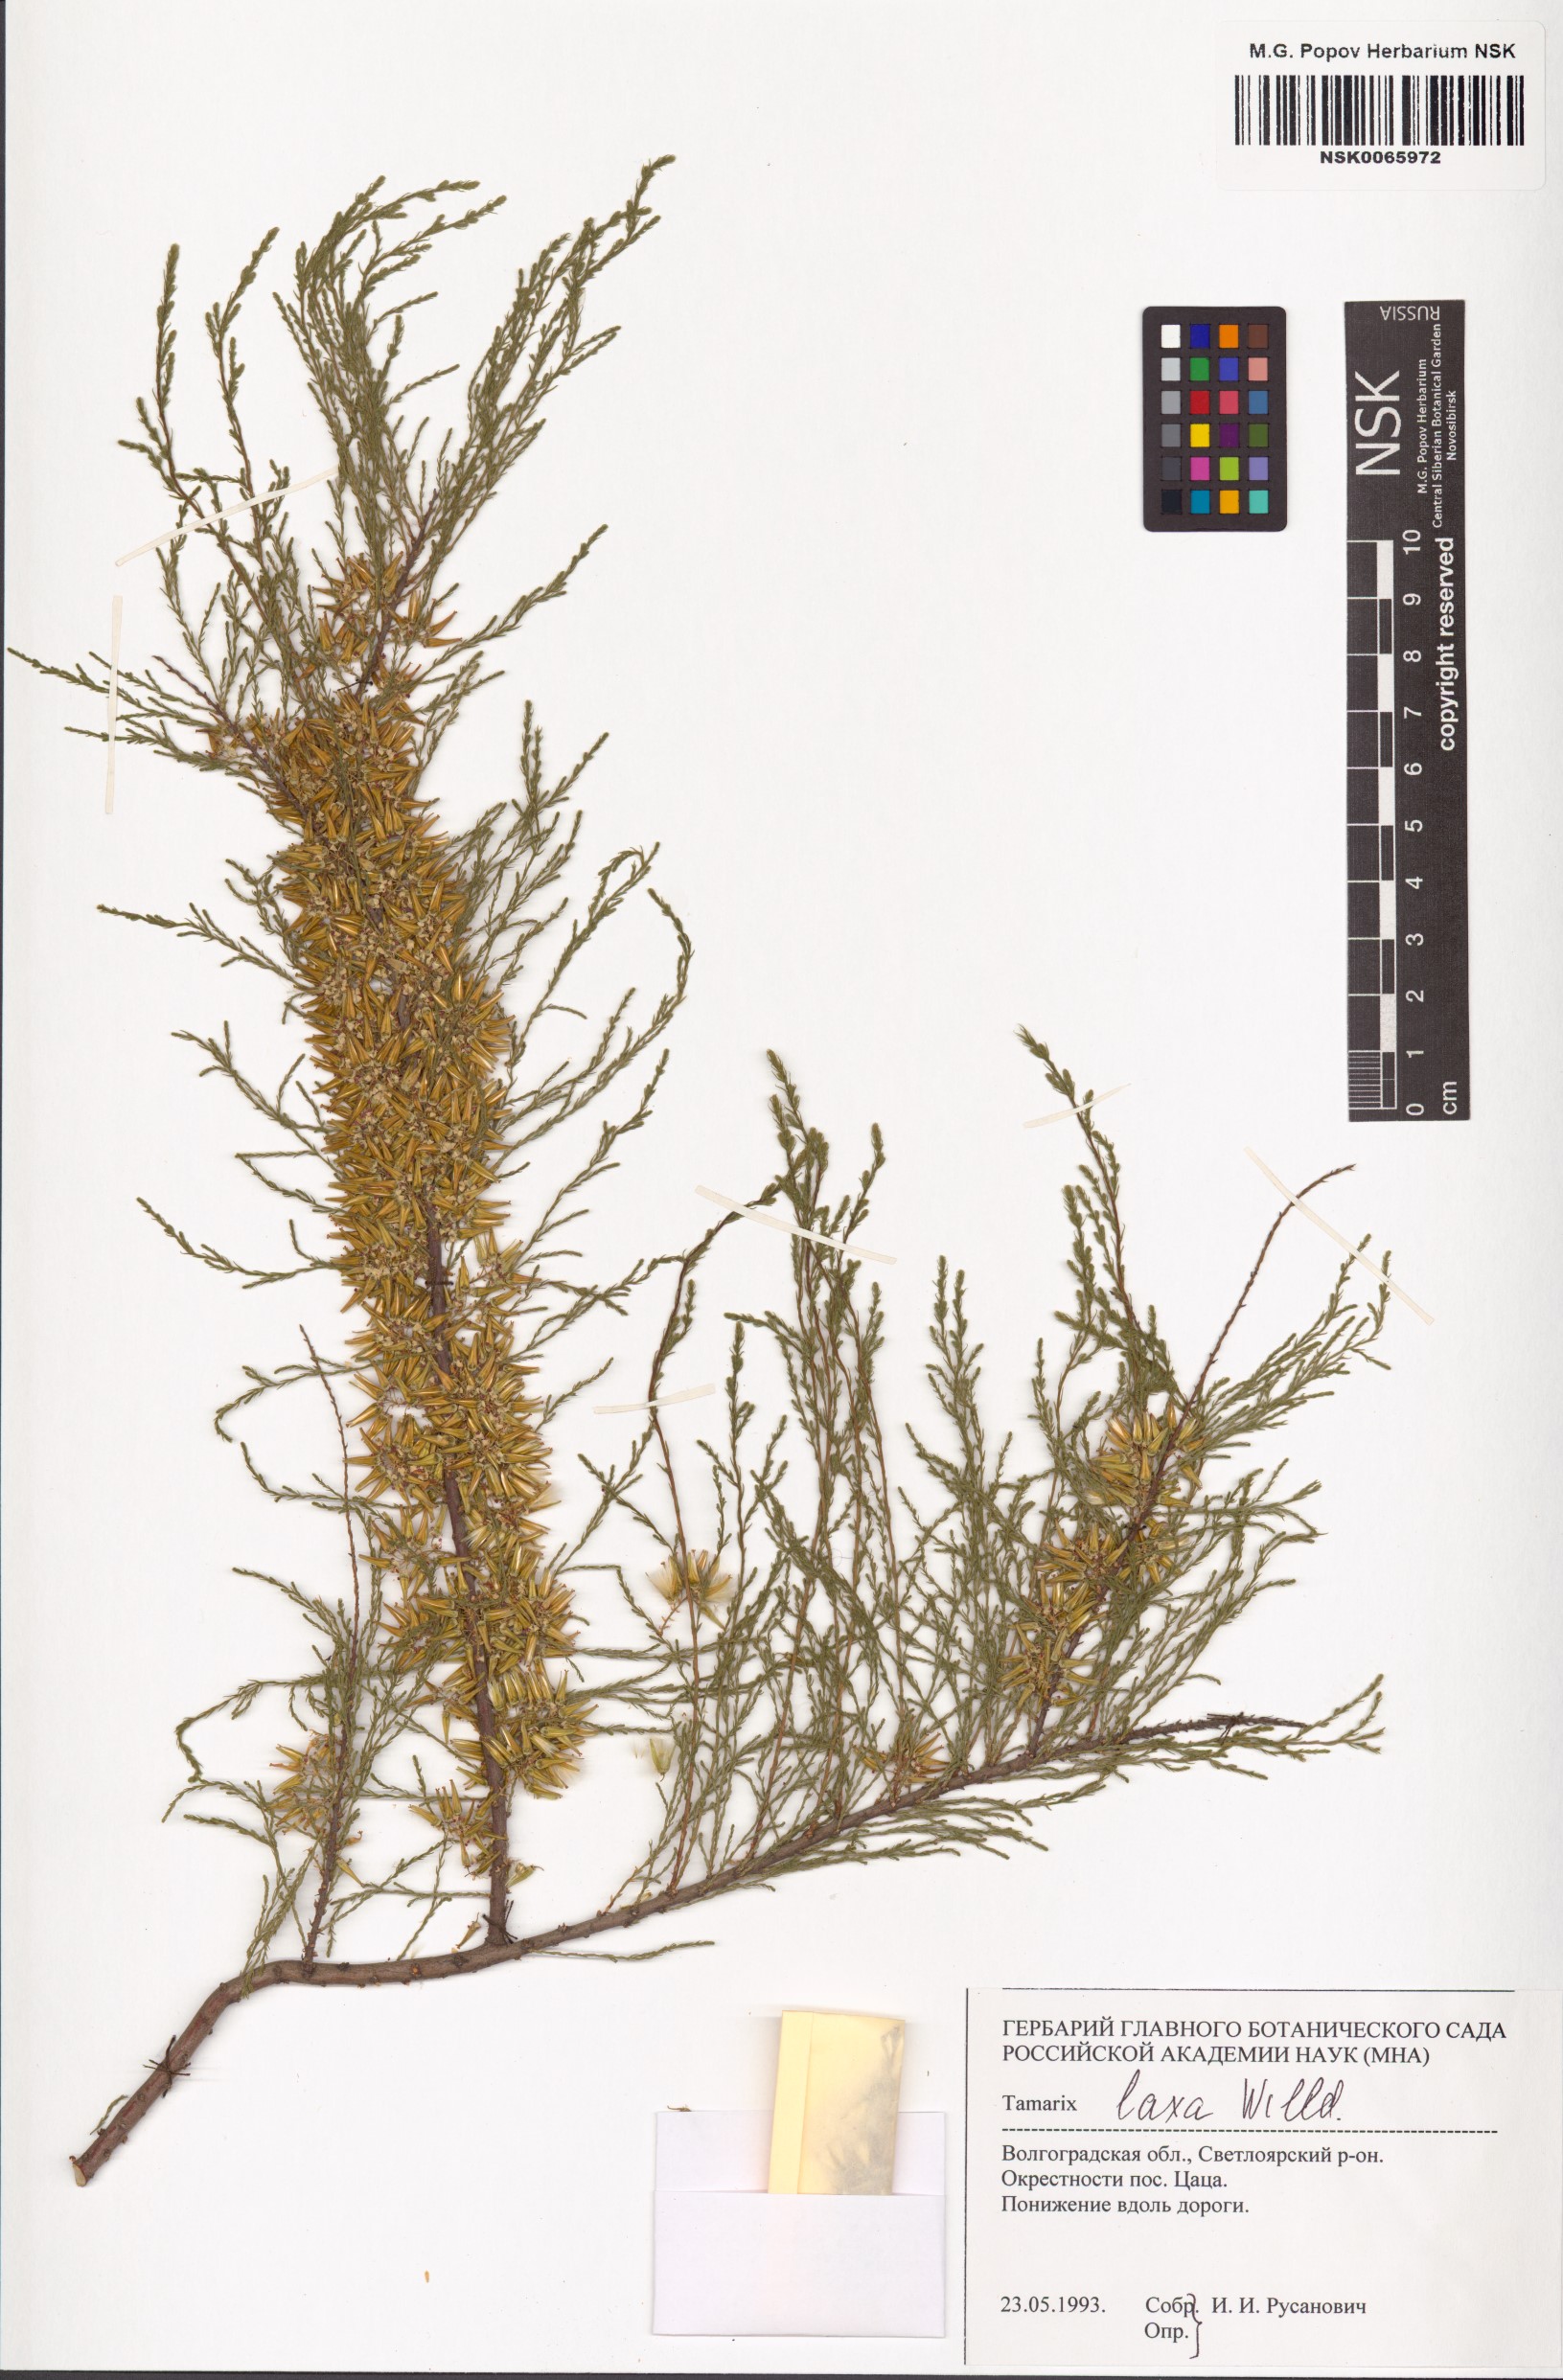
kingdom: Plantae
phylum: Tracheophyta
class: Magnoliopsida
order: Caryophyllales
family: Tamaricaceae
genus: Tamarix
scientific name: Tamarix laxa
